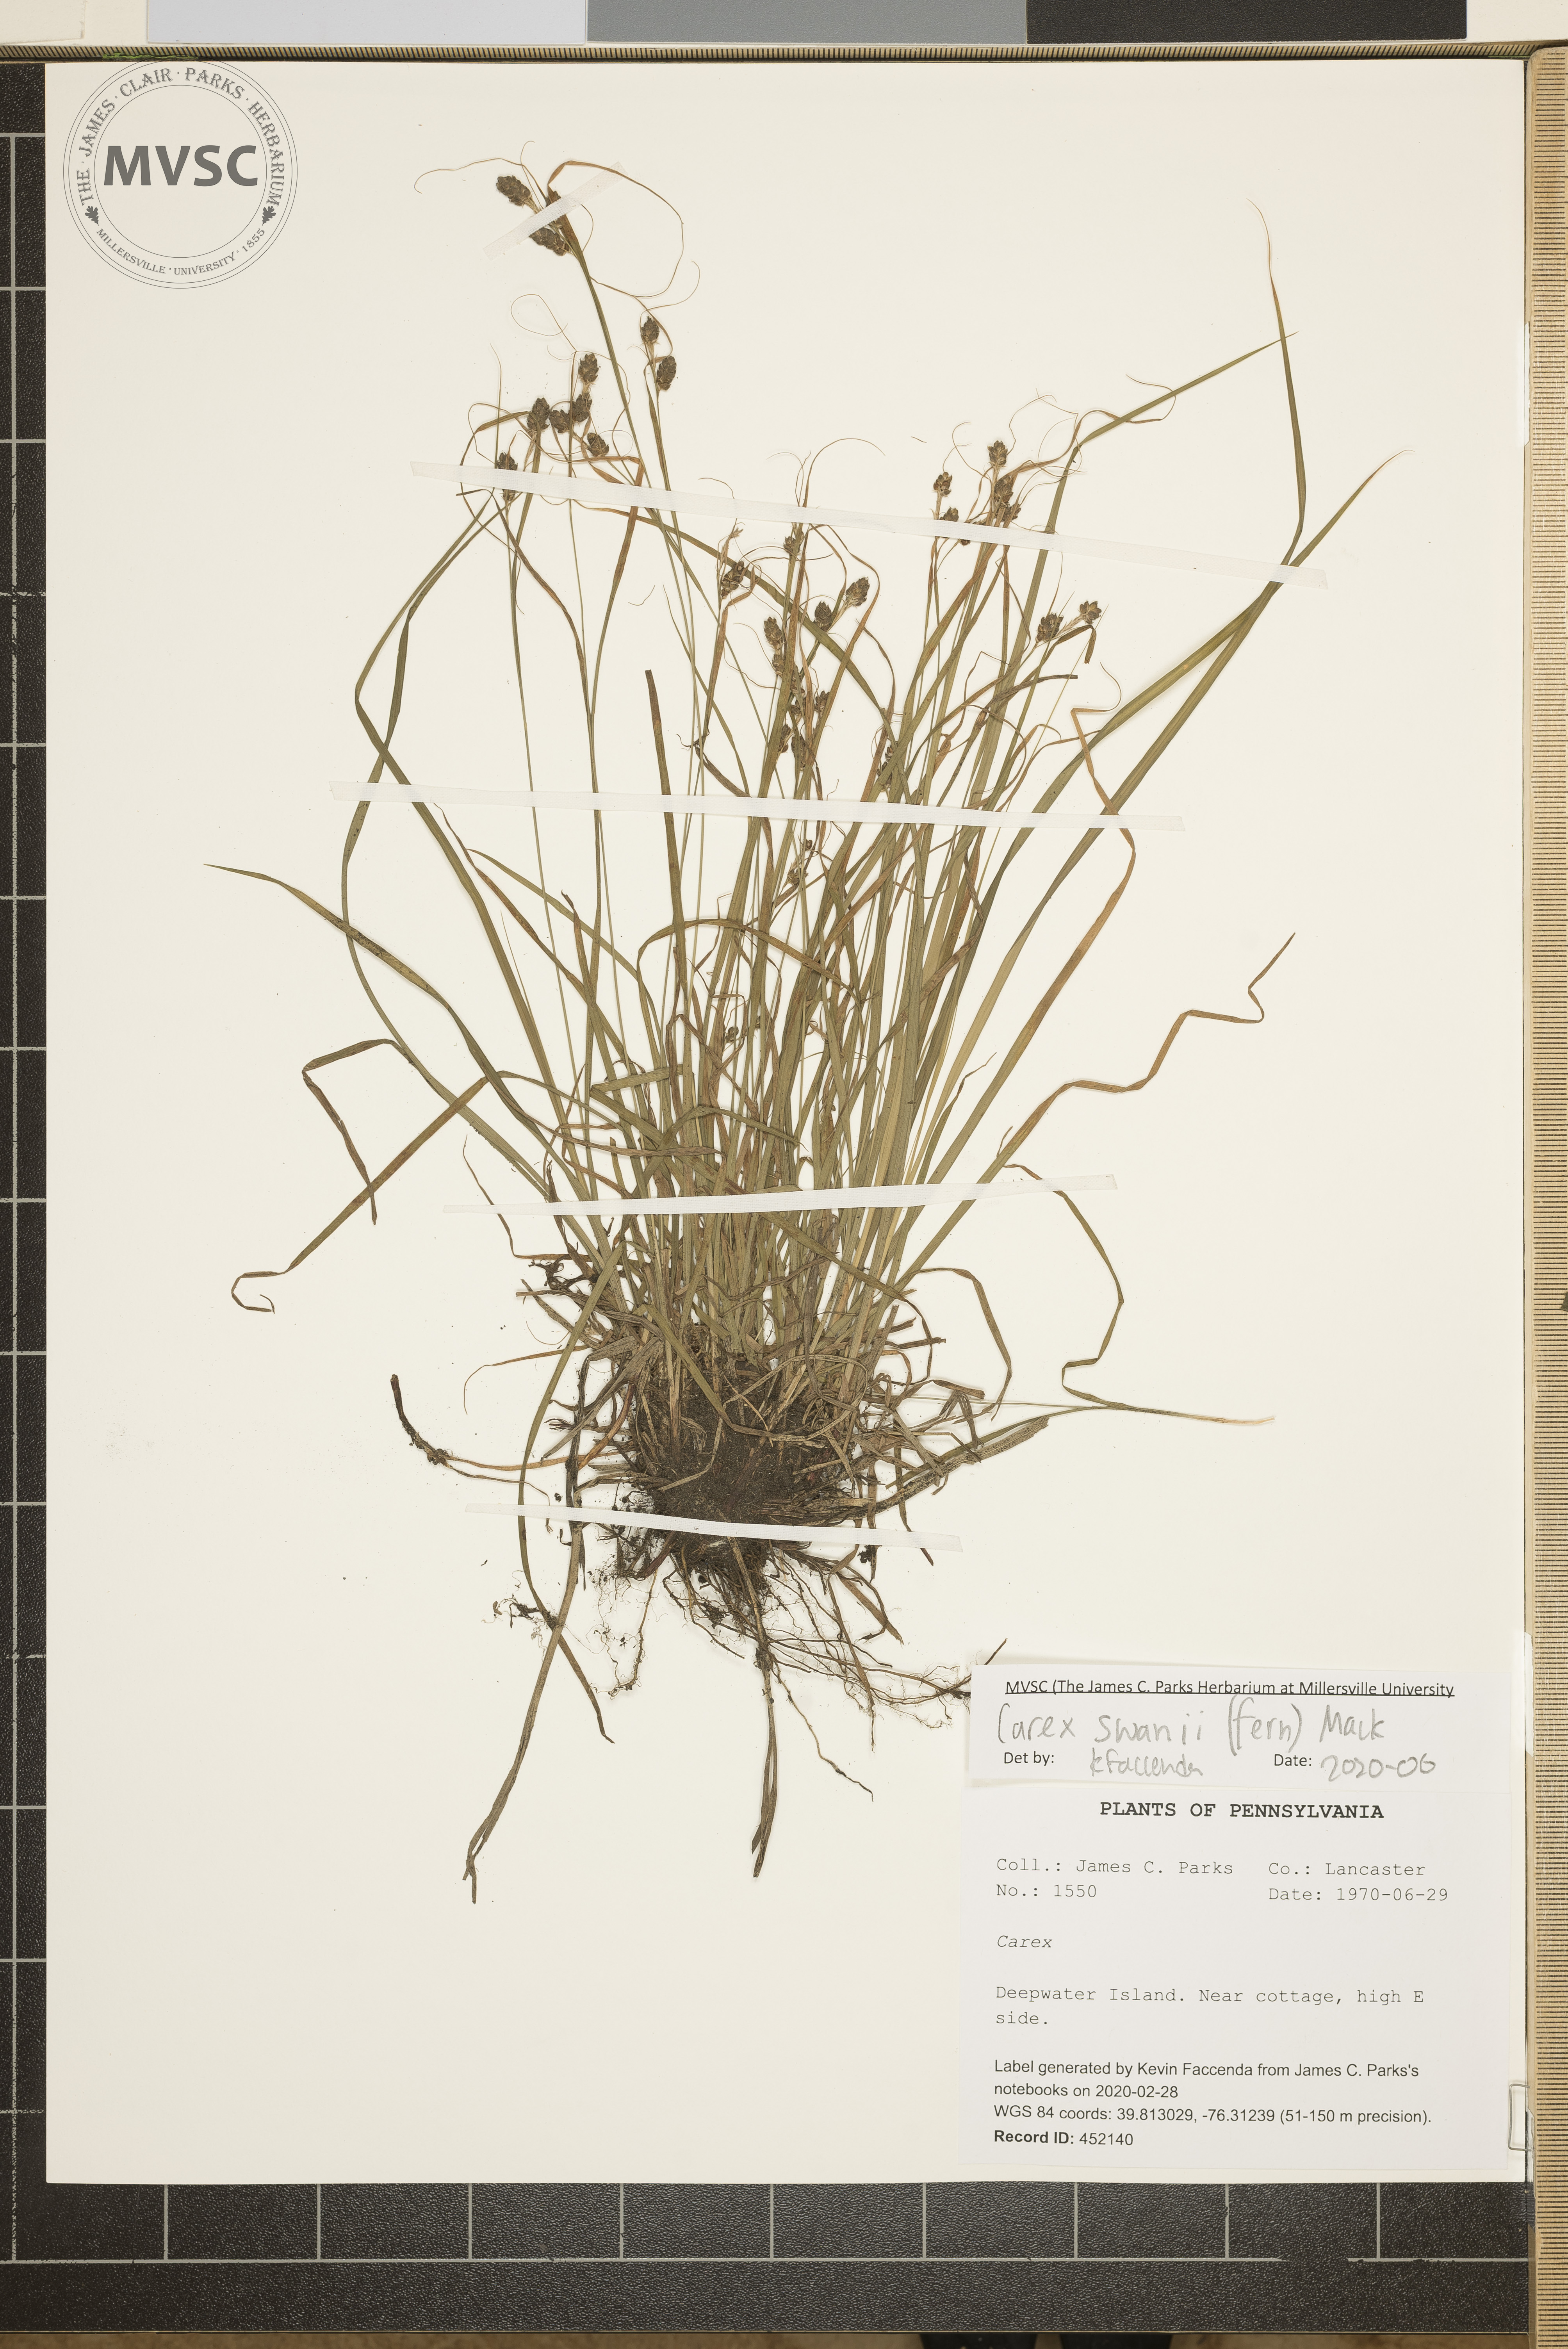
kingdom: Plantae
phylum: Tracheophyta
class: Liliopsida
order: Poales
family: Cyperaceae
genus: Carex
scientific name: Carex swanii
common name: Downy green sedge
